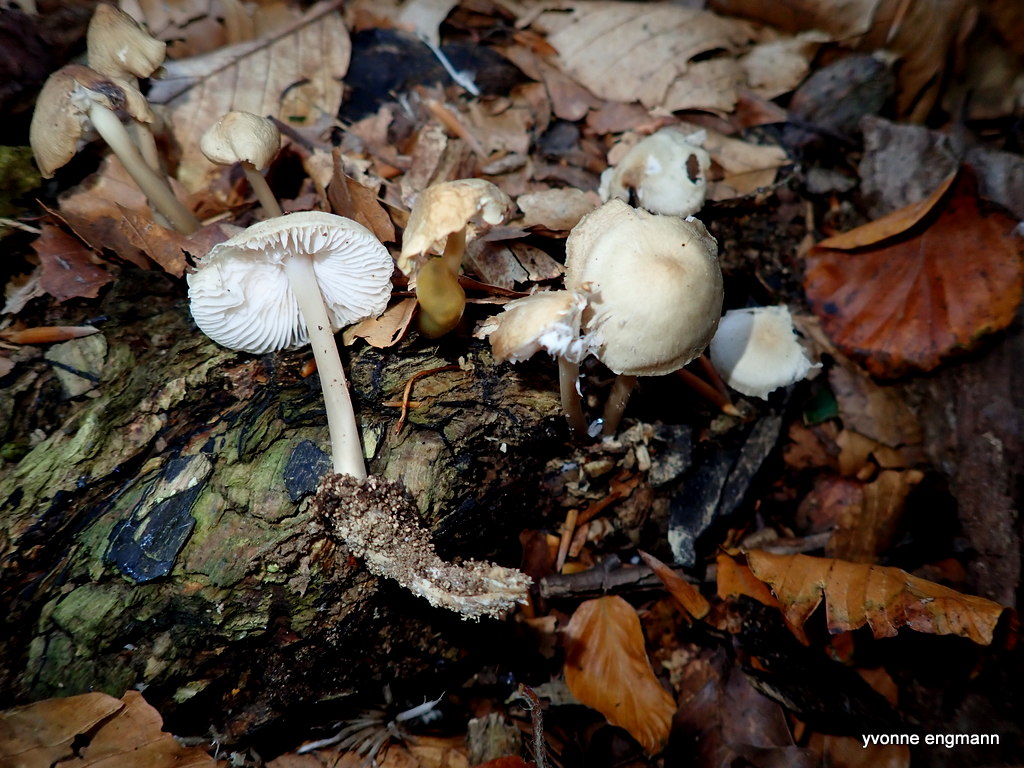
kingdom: Fungi
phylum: Basidiomycota
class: Agaricomycetes
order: Agaricales
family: Mycenaceae
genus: Mycena
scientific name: Mycena galericulata
